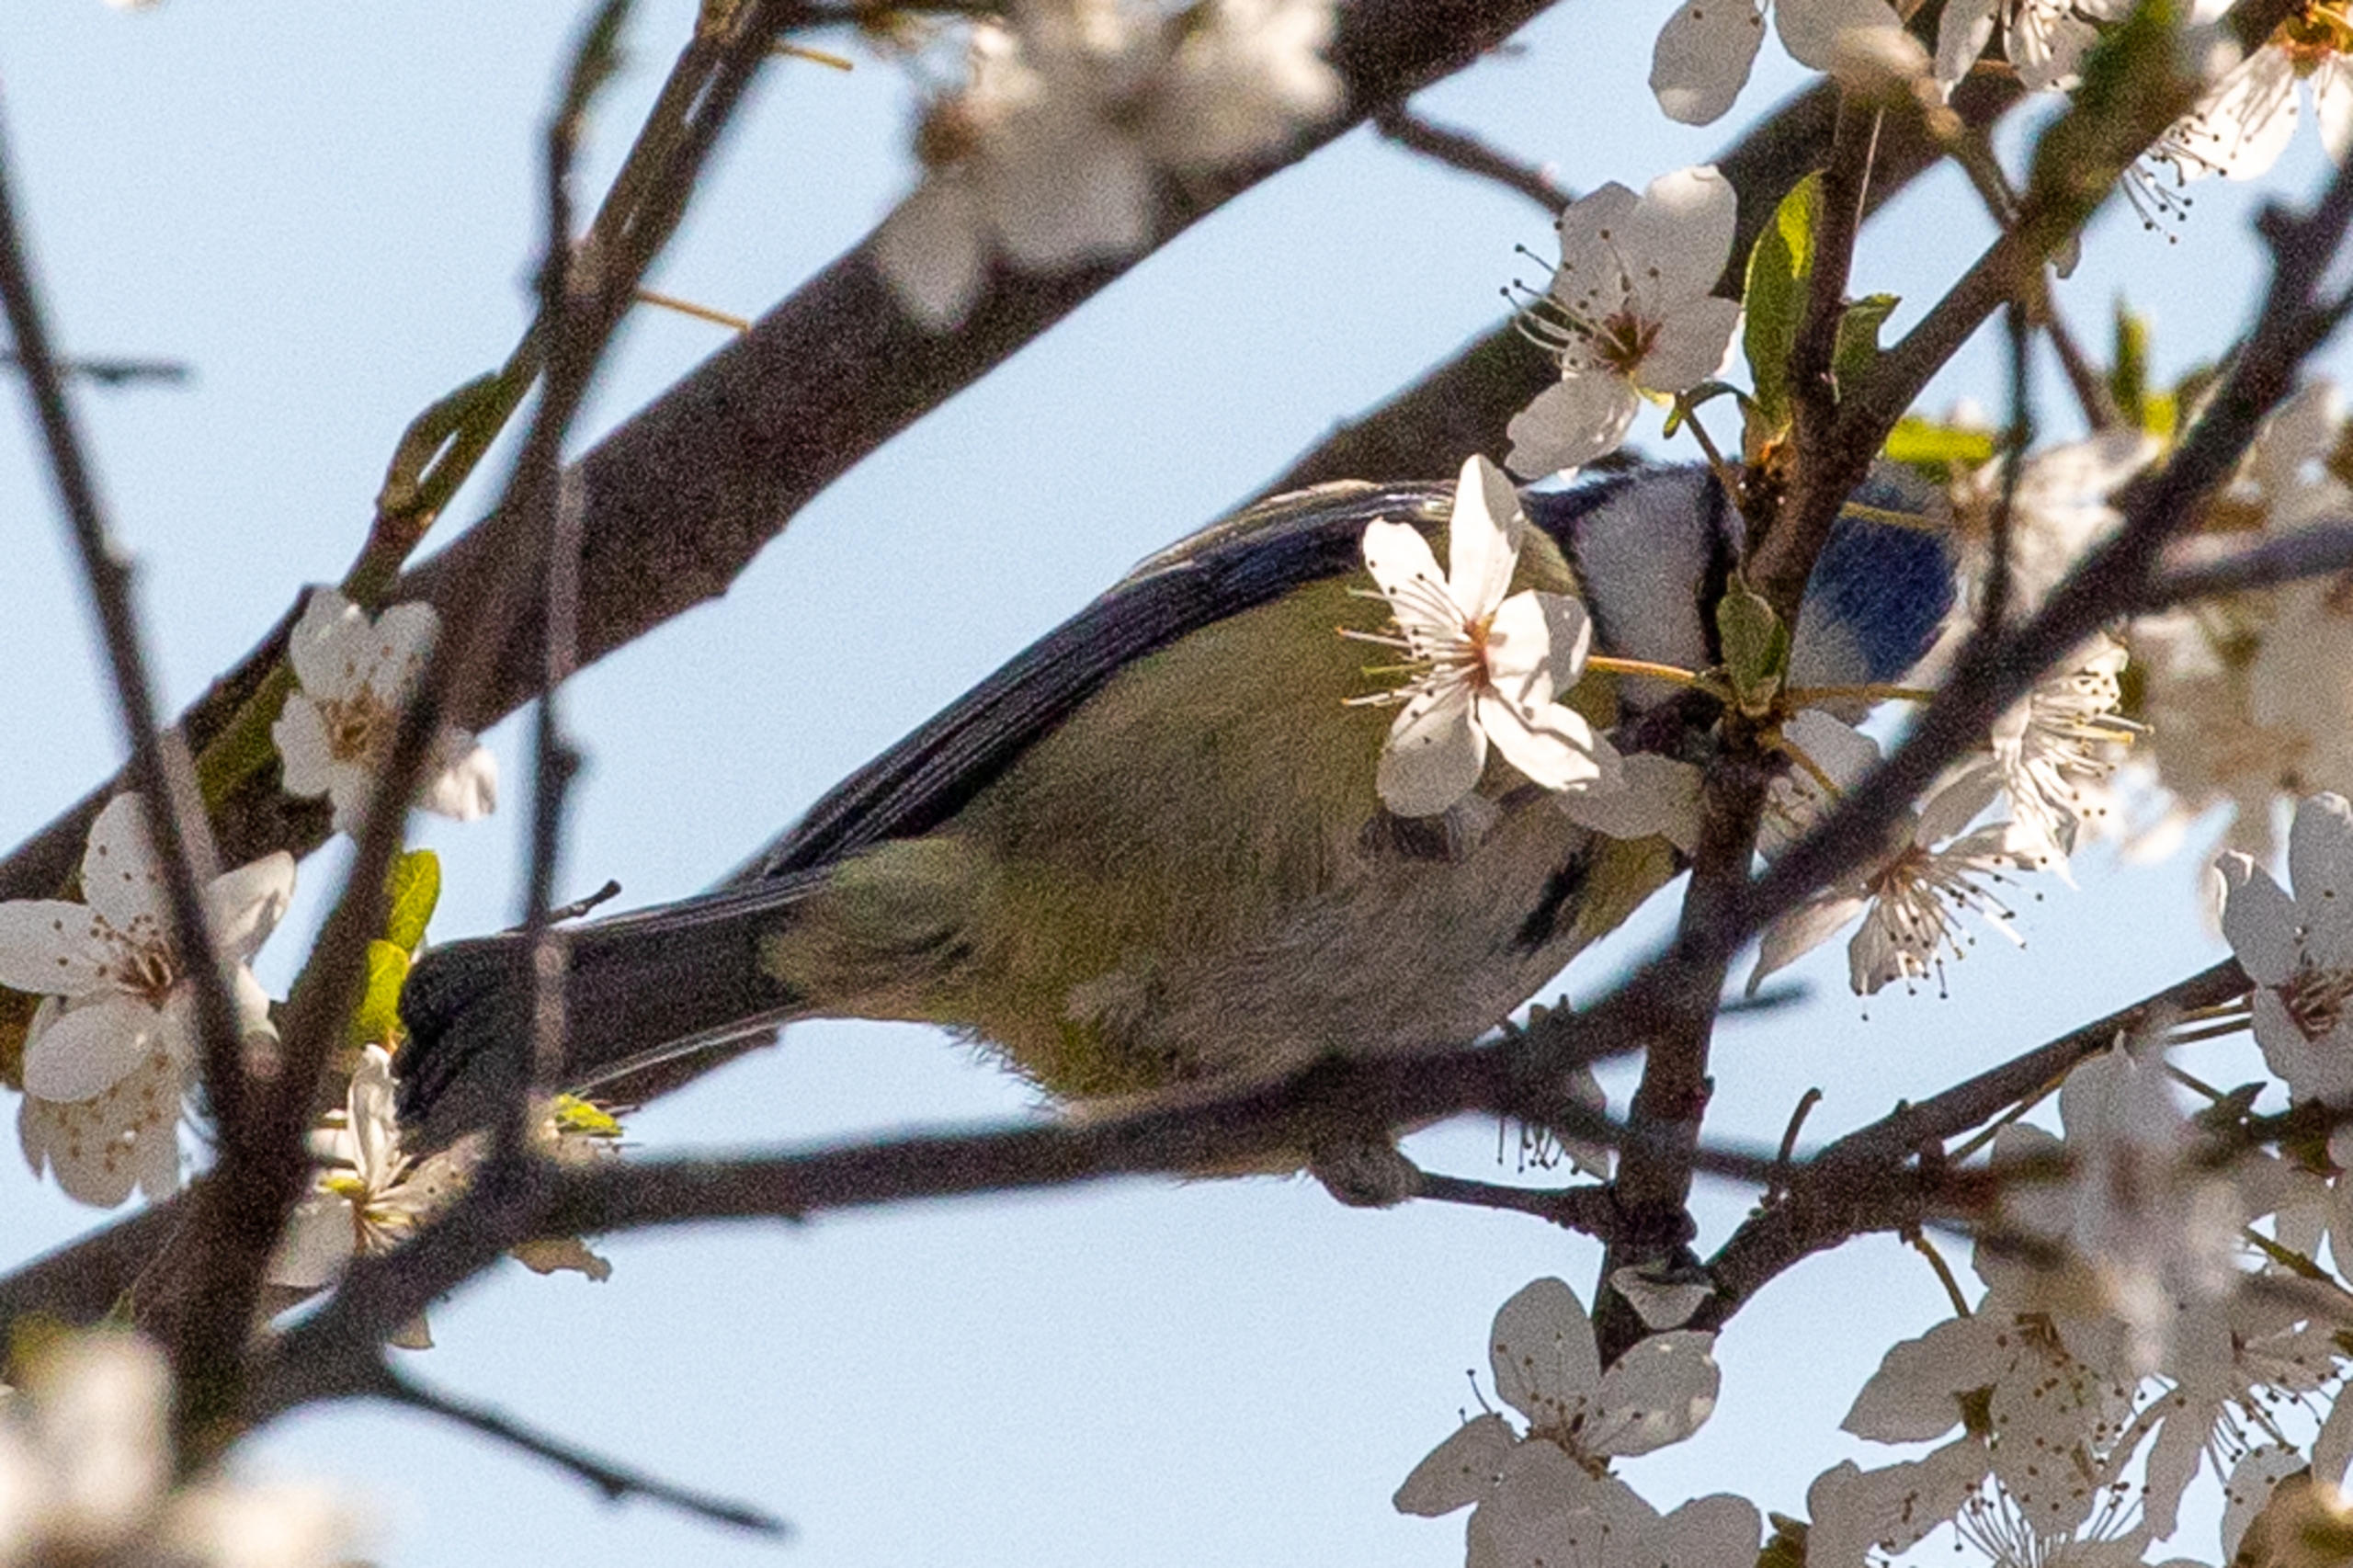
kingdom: Animalia
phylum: Chordata
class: Aves
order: Passeriformes
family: Paridae
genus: Cyanistes
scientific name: Cyanistes caeruleus
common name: Blåmejse
